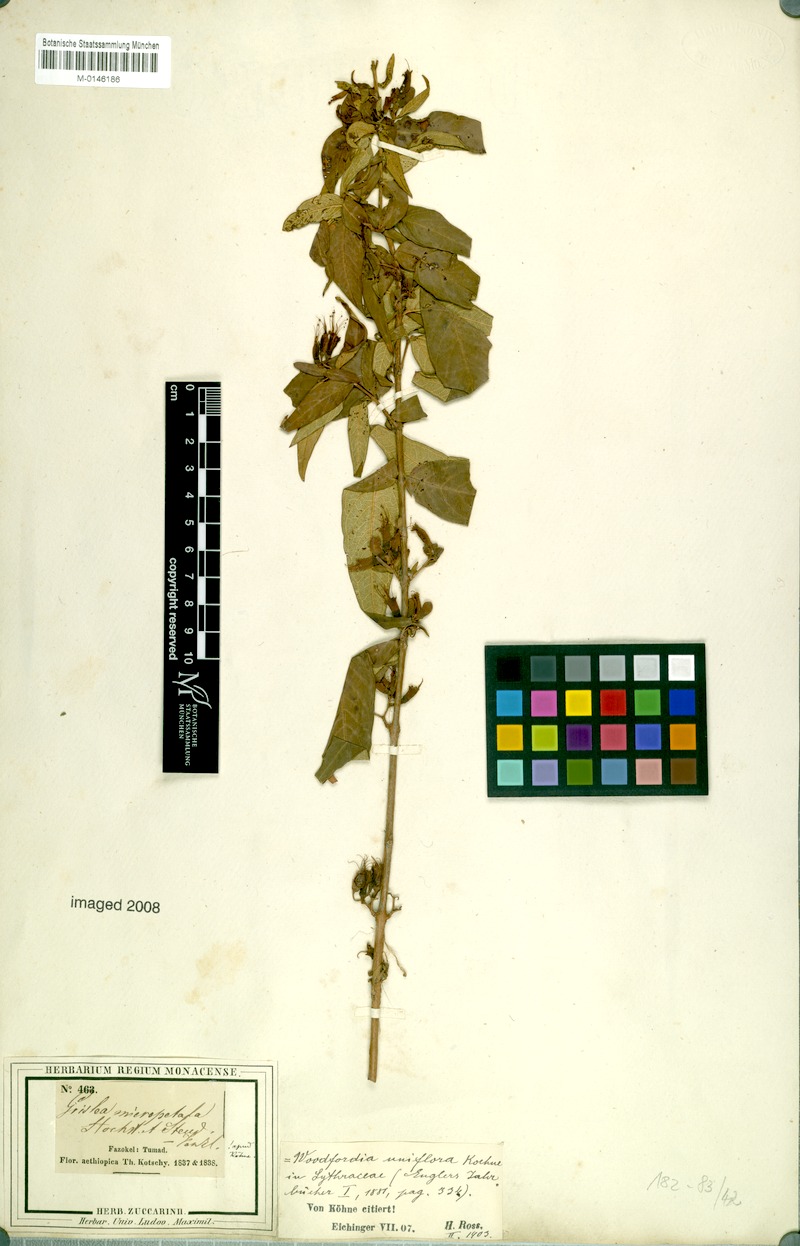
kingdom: Plantae
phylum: Tracheophyta
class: Magnoliopsida
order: Myrtales
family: Lythraceae
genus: Woodfordia
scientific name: Woodfordia uniflora
